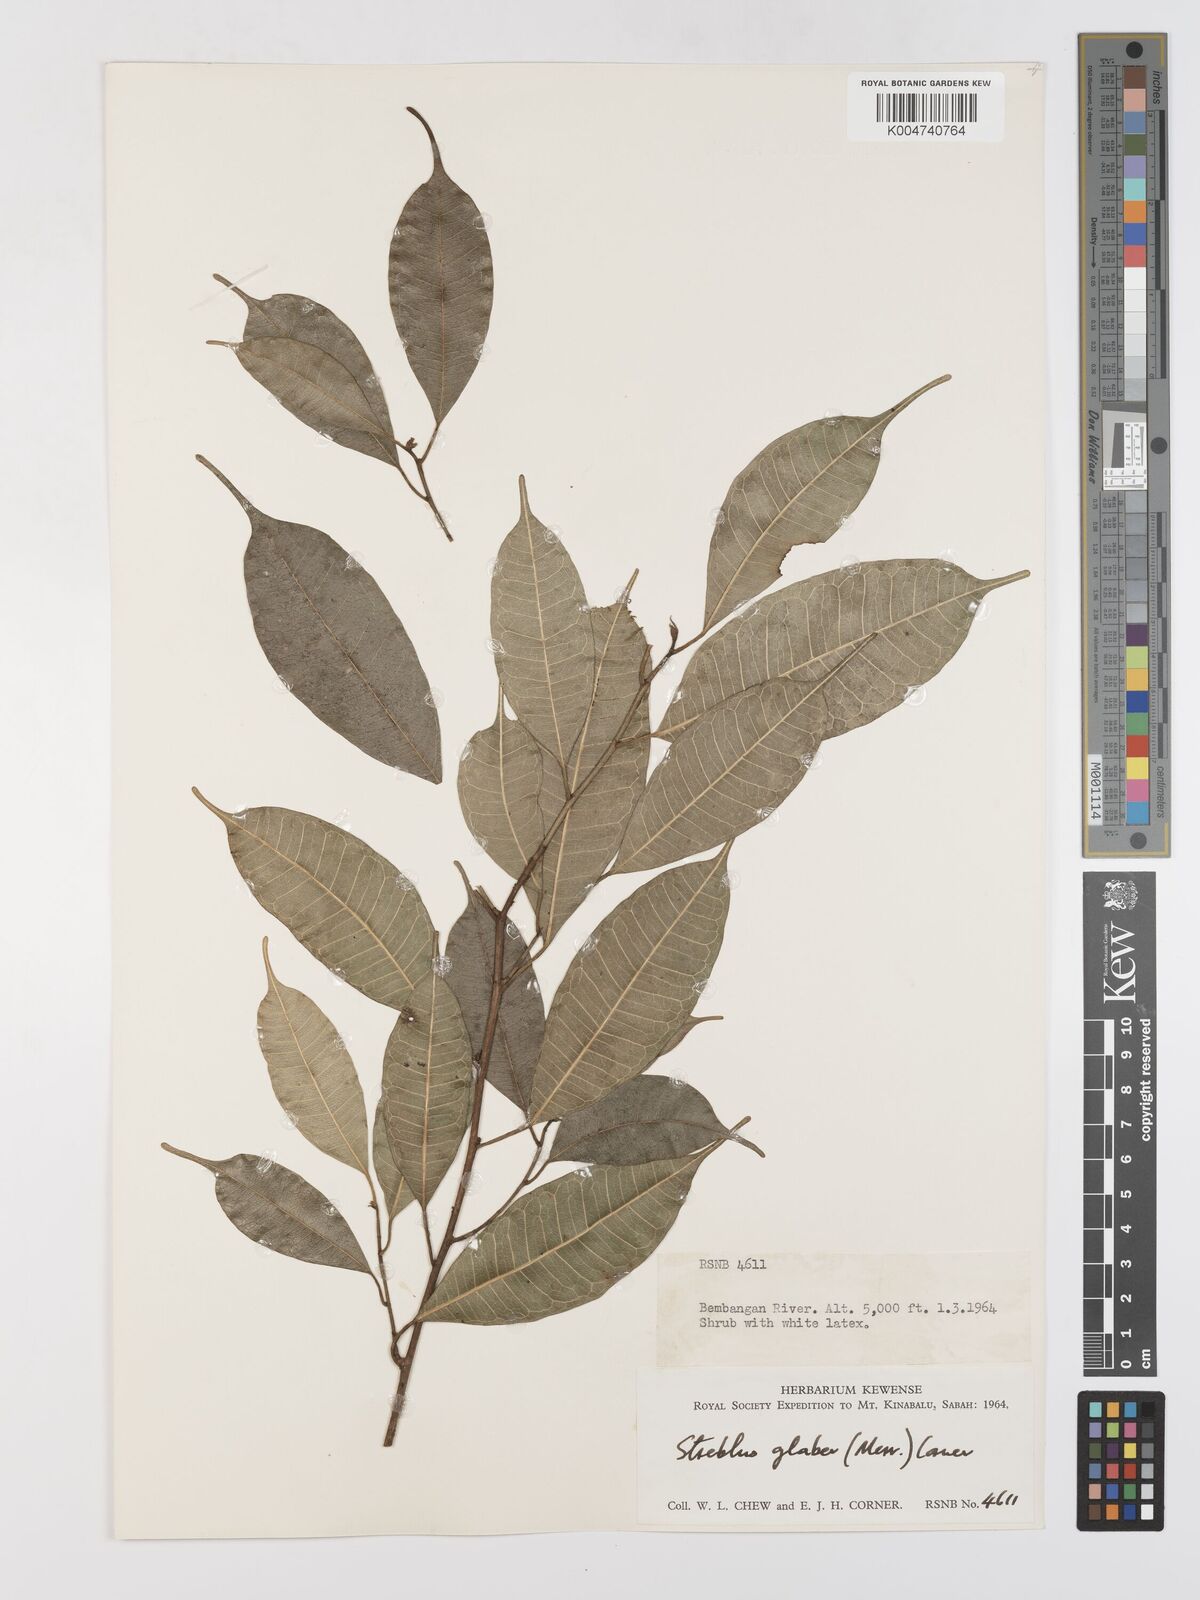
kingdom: Plantae
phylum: Tracheophyta
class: Magnoliopsida
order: Rosales
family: Moraceae
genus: Paratrophis
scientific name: Paratrophis glabra
